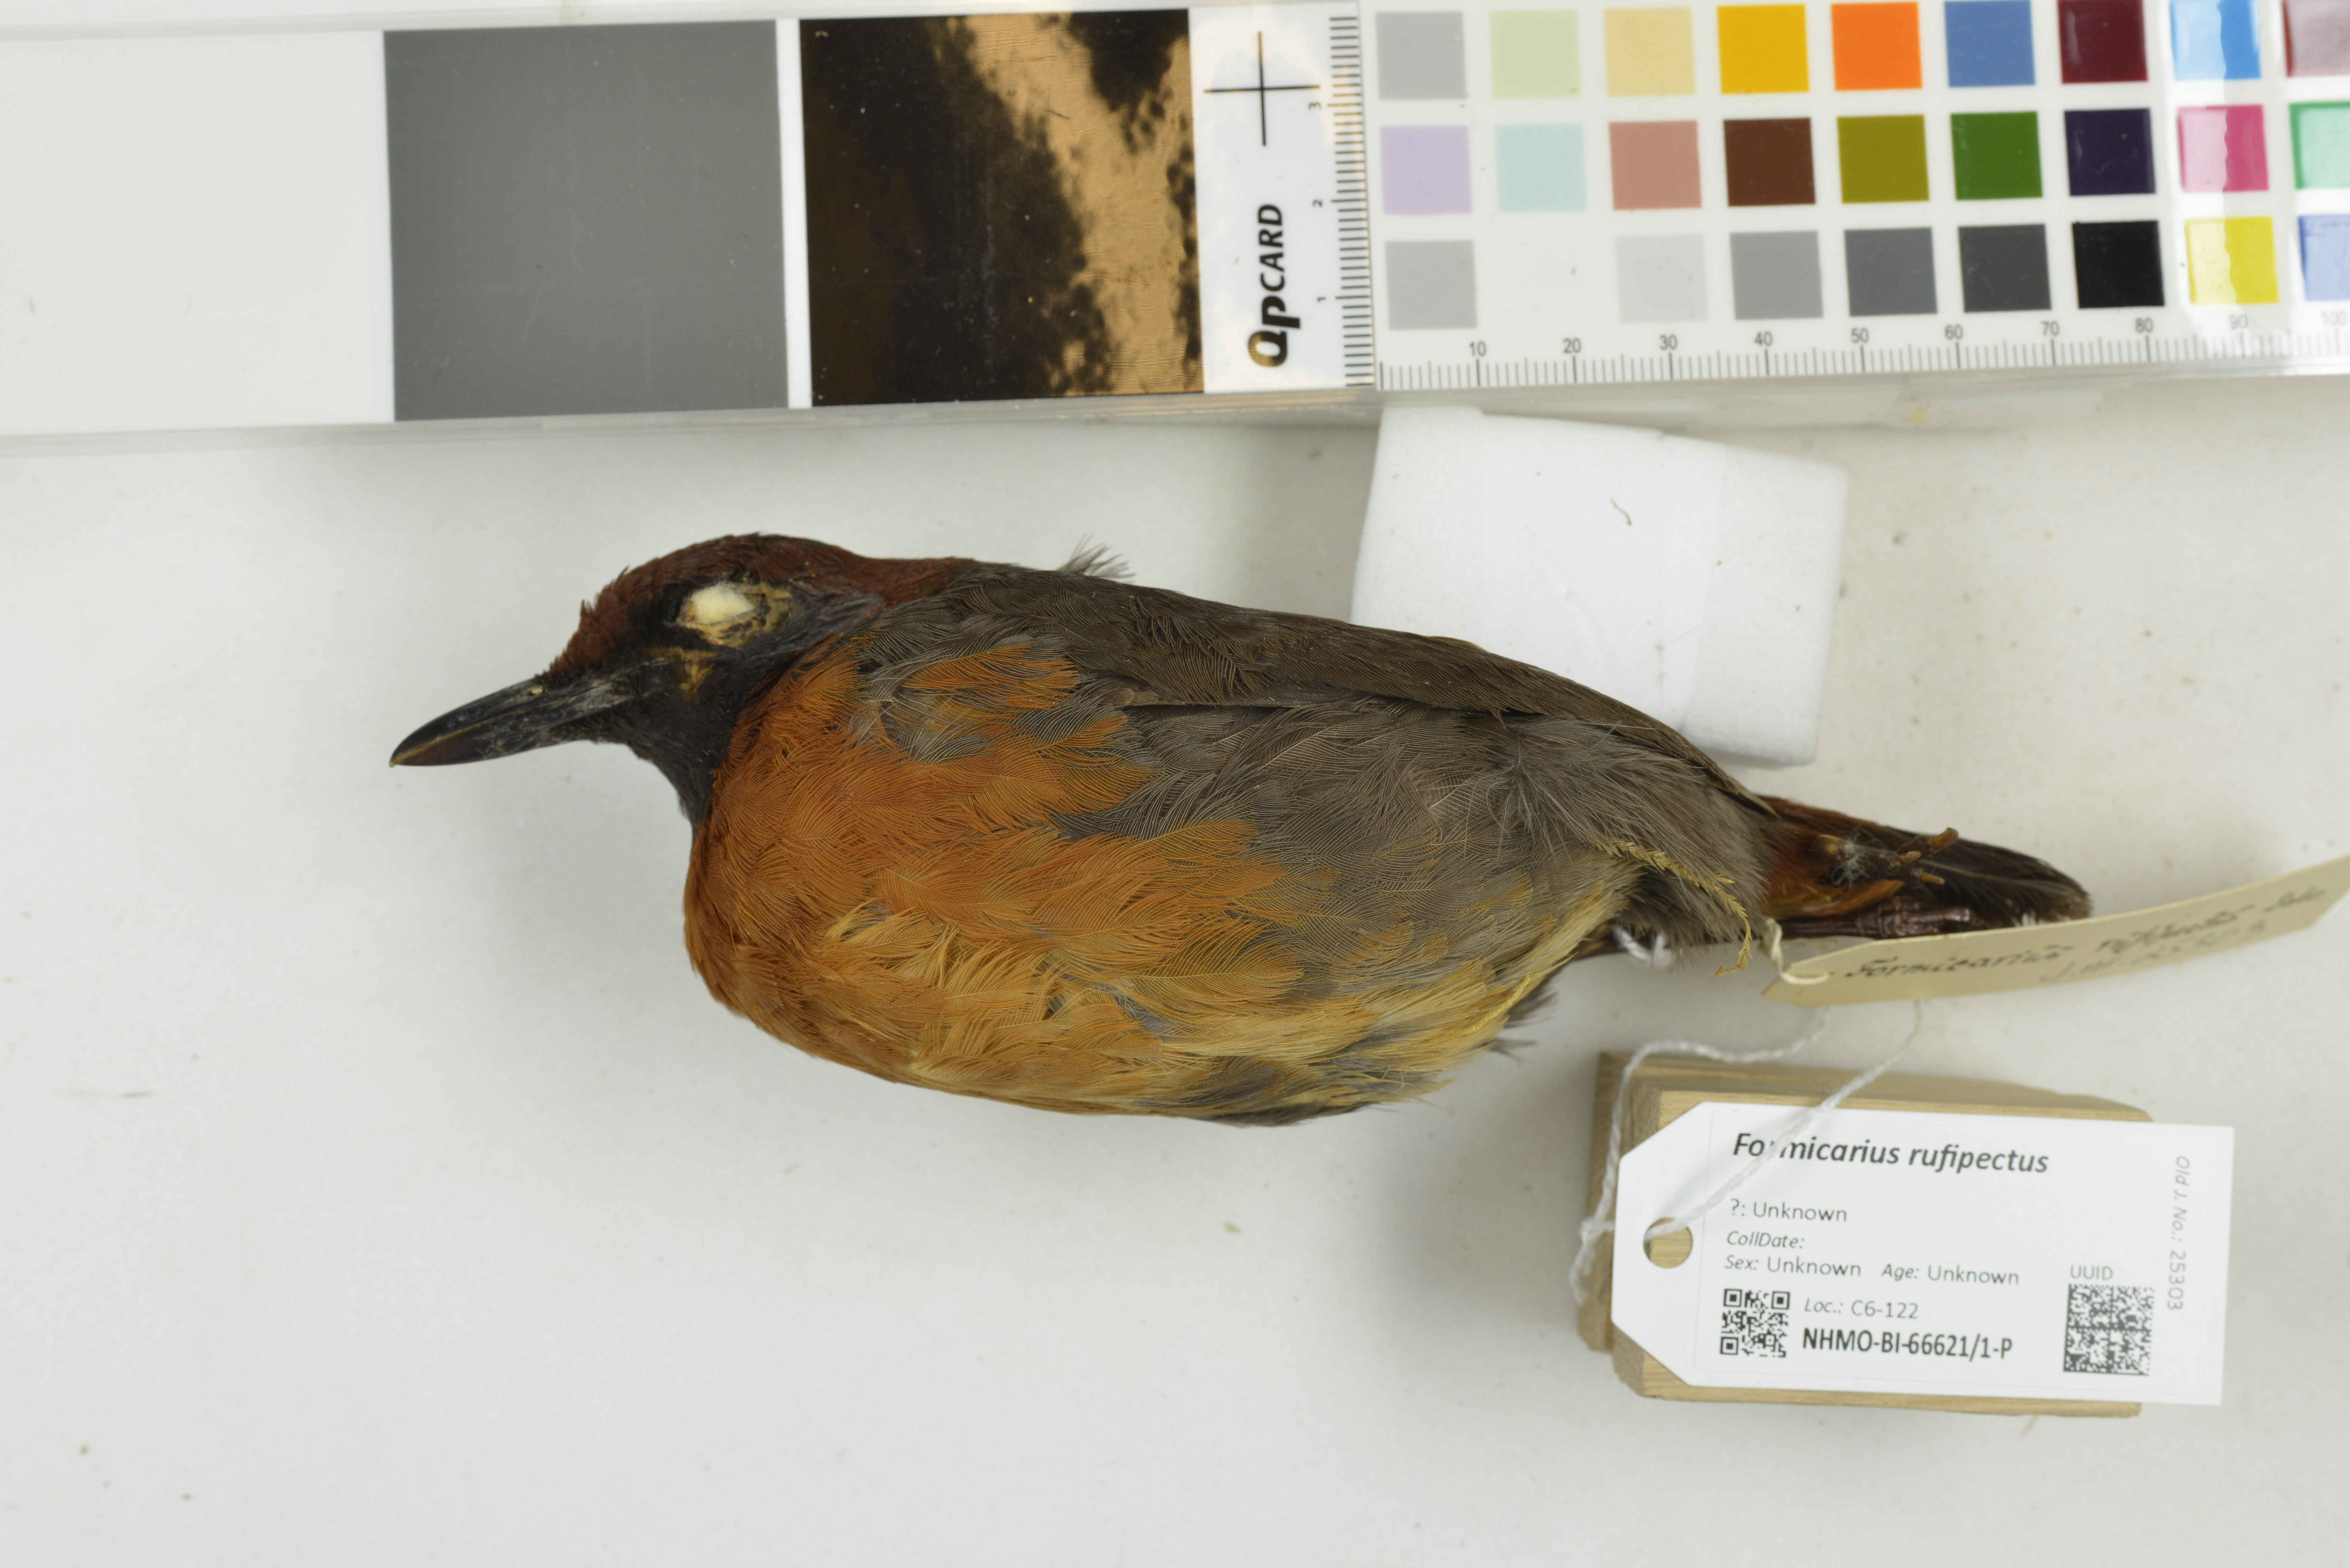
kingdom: Animalia
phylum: Chordata
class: Aves
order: Passeriformes
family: Formicariidae
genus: Formicarius
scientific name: Formicarius rufipectus
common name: Rufous-breasted antthrush
